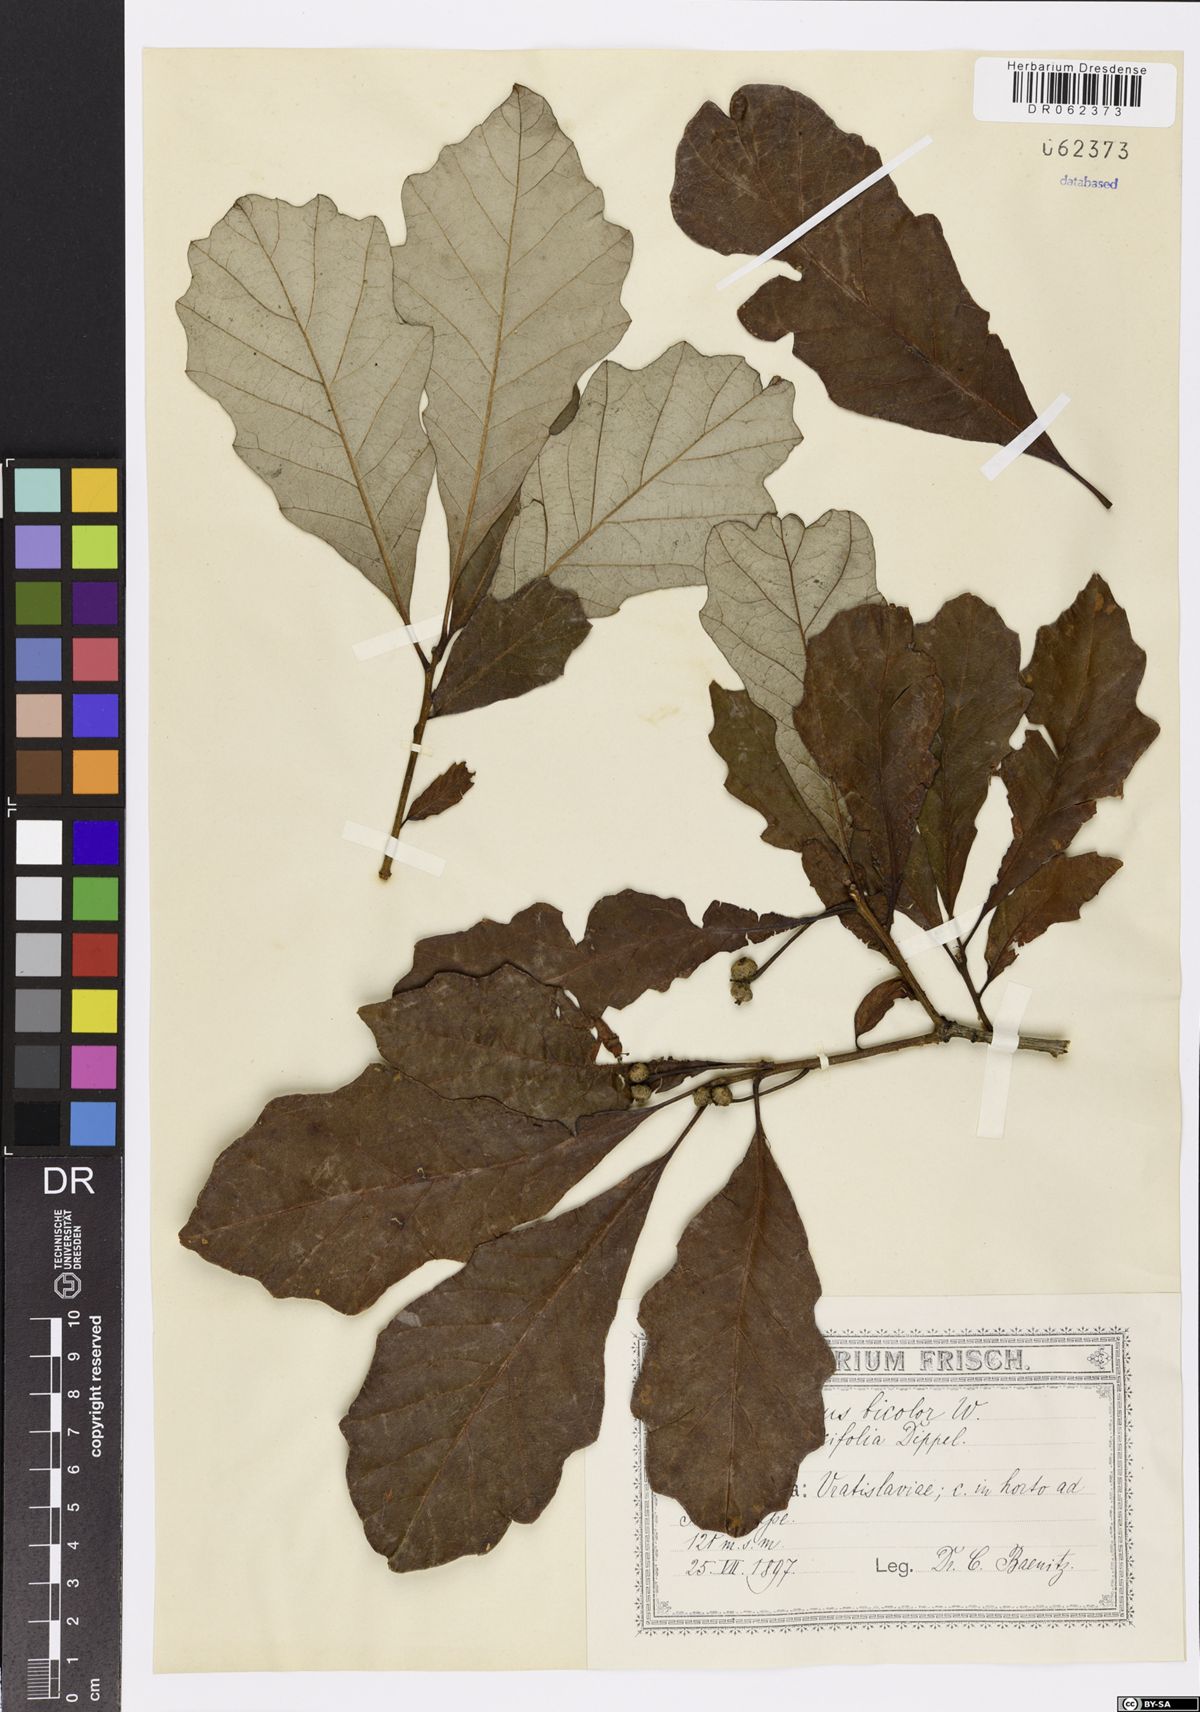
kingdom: Plantae
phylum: Tracheophyta
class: Magnoliopsida
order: Fagales
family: Fagaceae
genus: Quercus
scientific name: Quercus bicolor
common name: Swamp white oak
